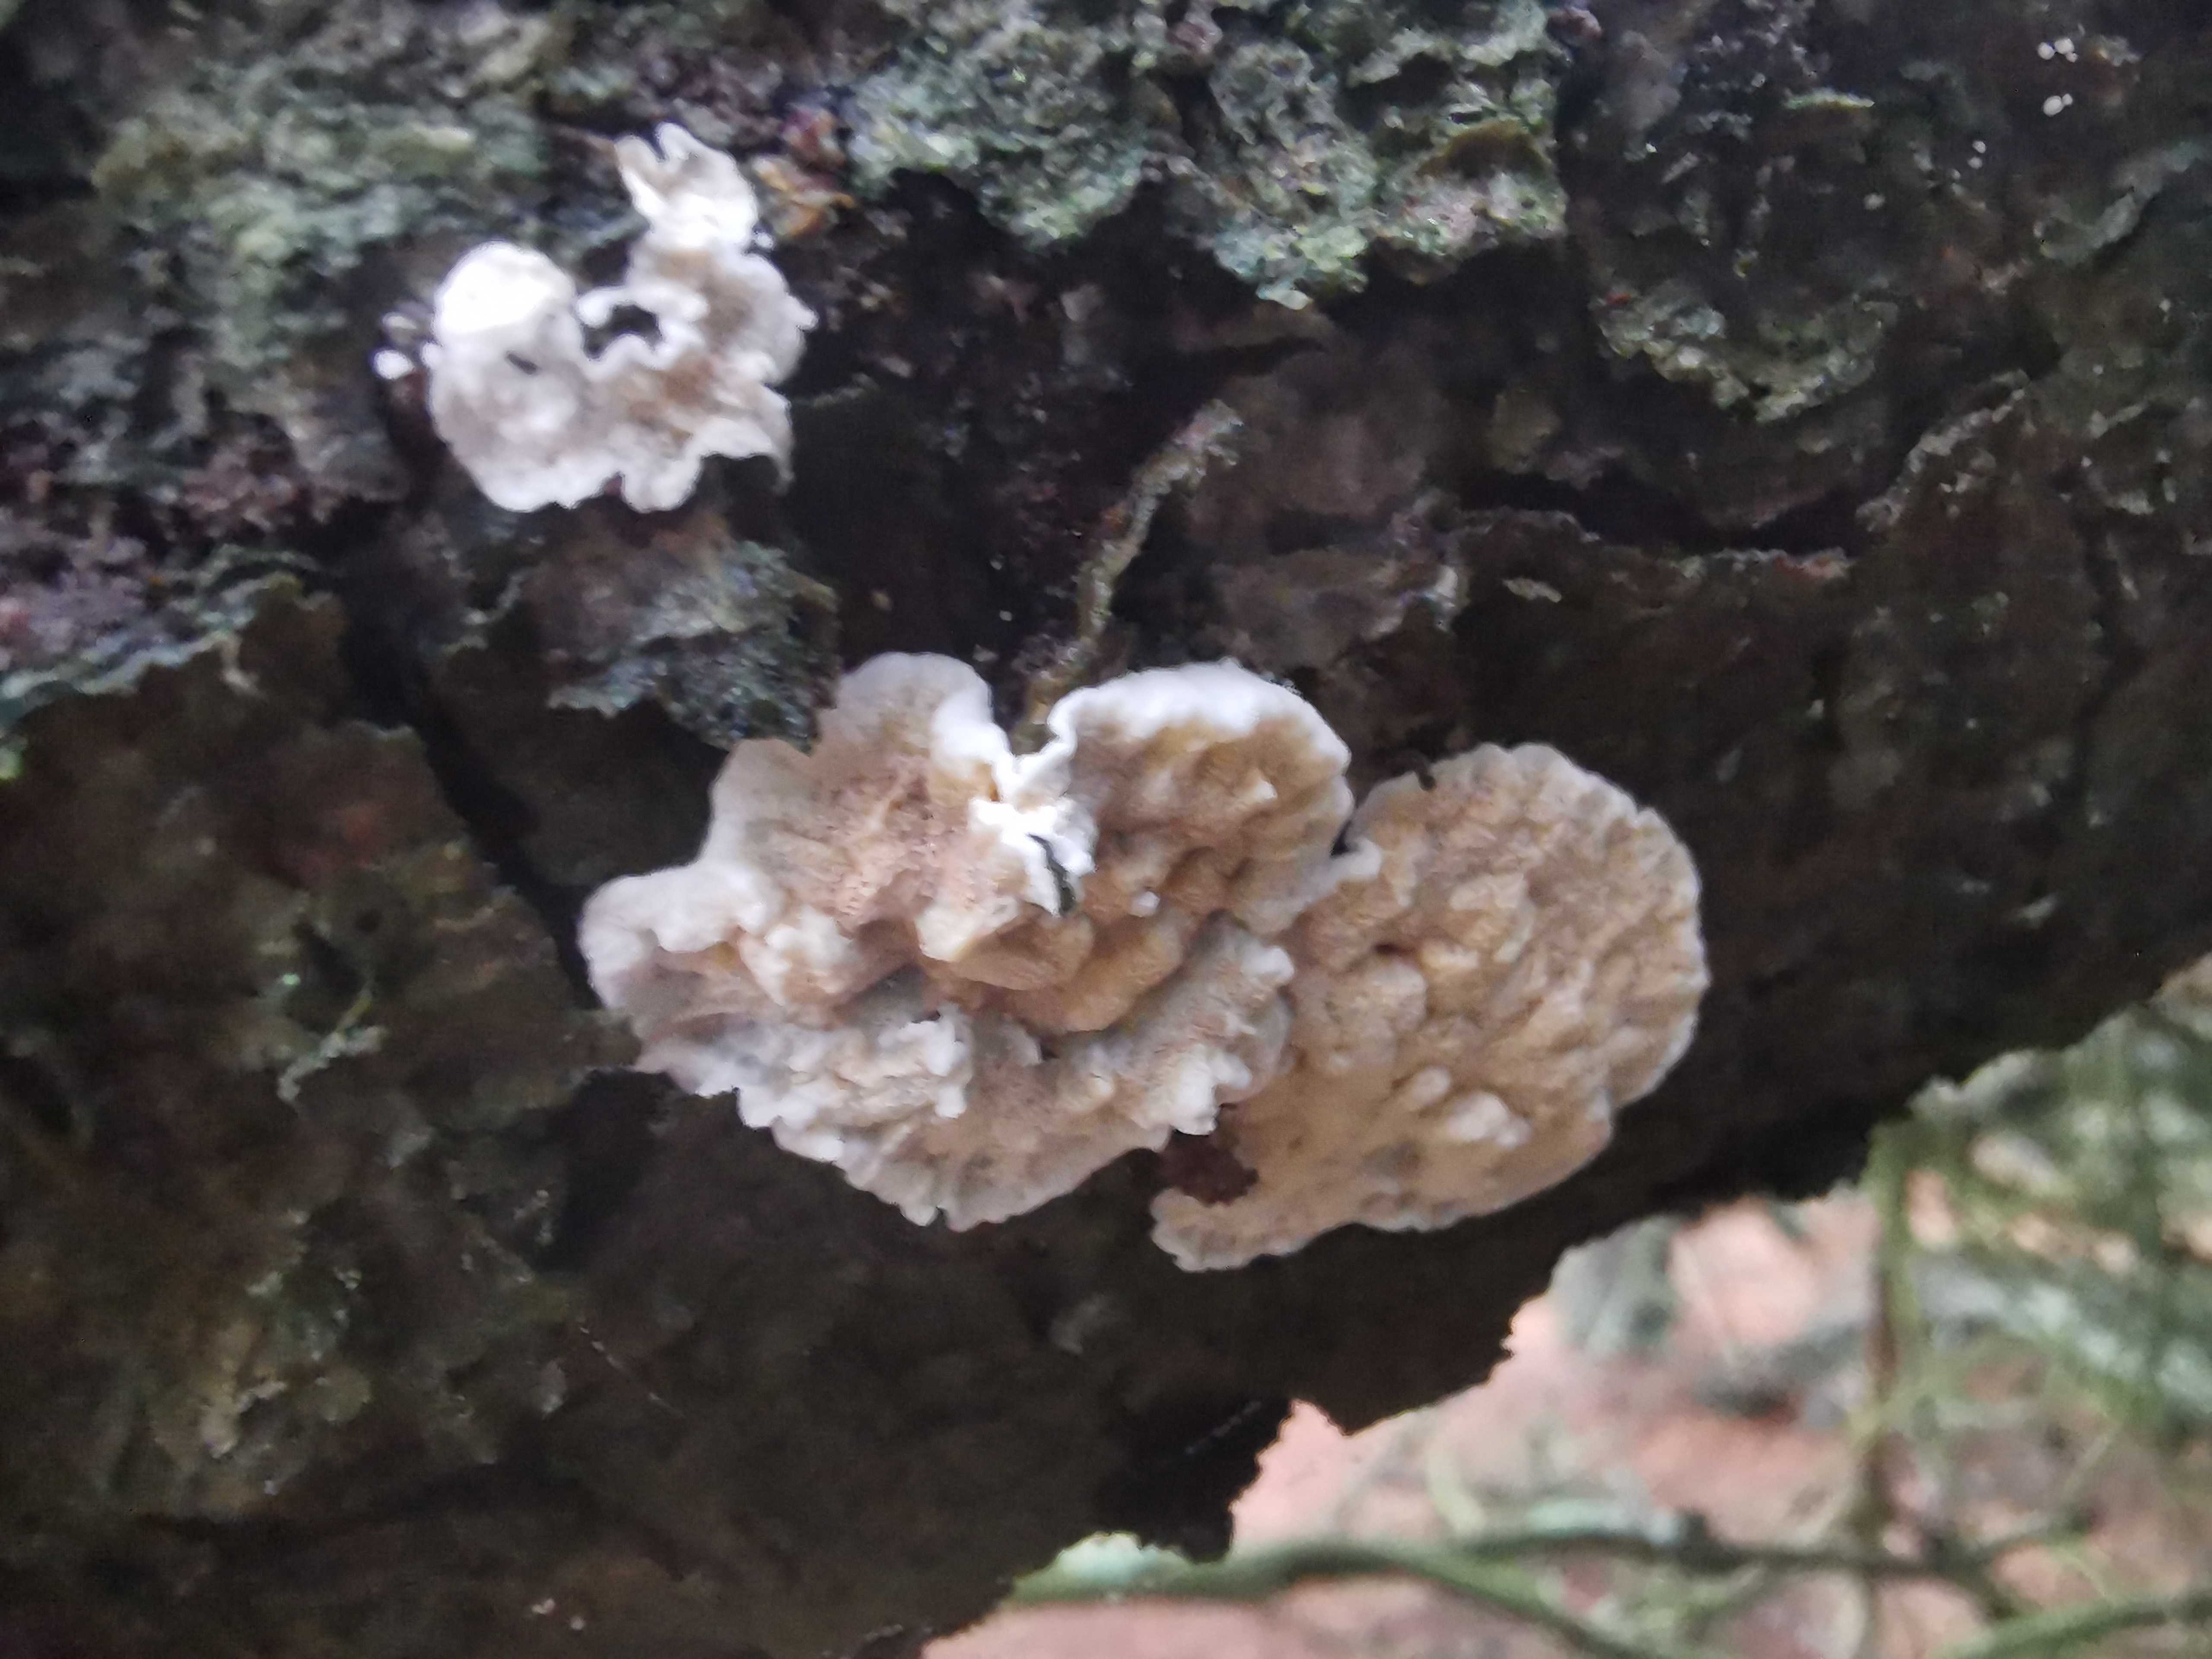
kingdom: Fungi
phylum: Basidiomycota
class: Agaricomycetes
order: Polyporales
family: Incrustoporiaceae
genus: Skeletocutis
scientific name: Skeletocutis amorpha
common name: orange krystalporesvamp
